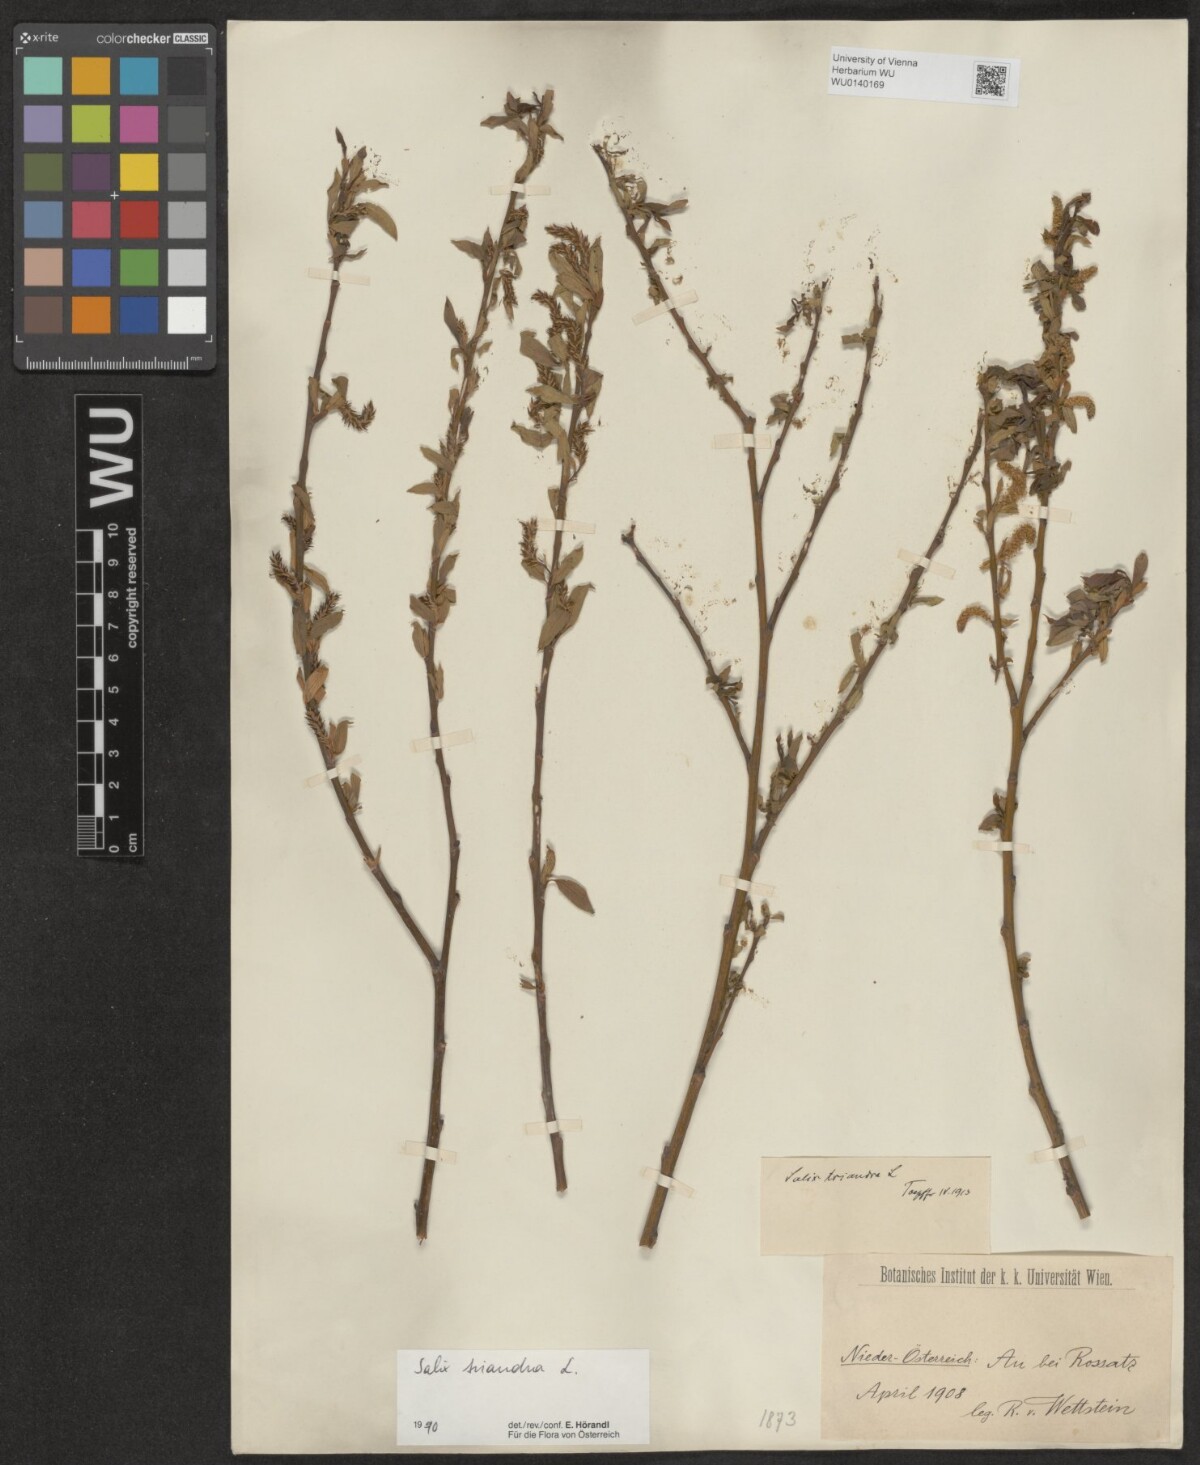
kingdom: Plantae
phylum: Tracheophyta
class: Magnoliopsida
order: Malpighiales
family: Salicaceae
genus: Salix
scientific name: Salix triandra
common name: Almond willow
